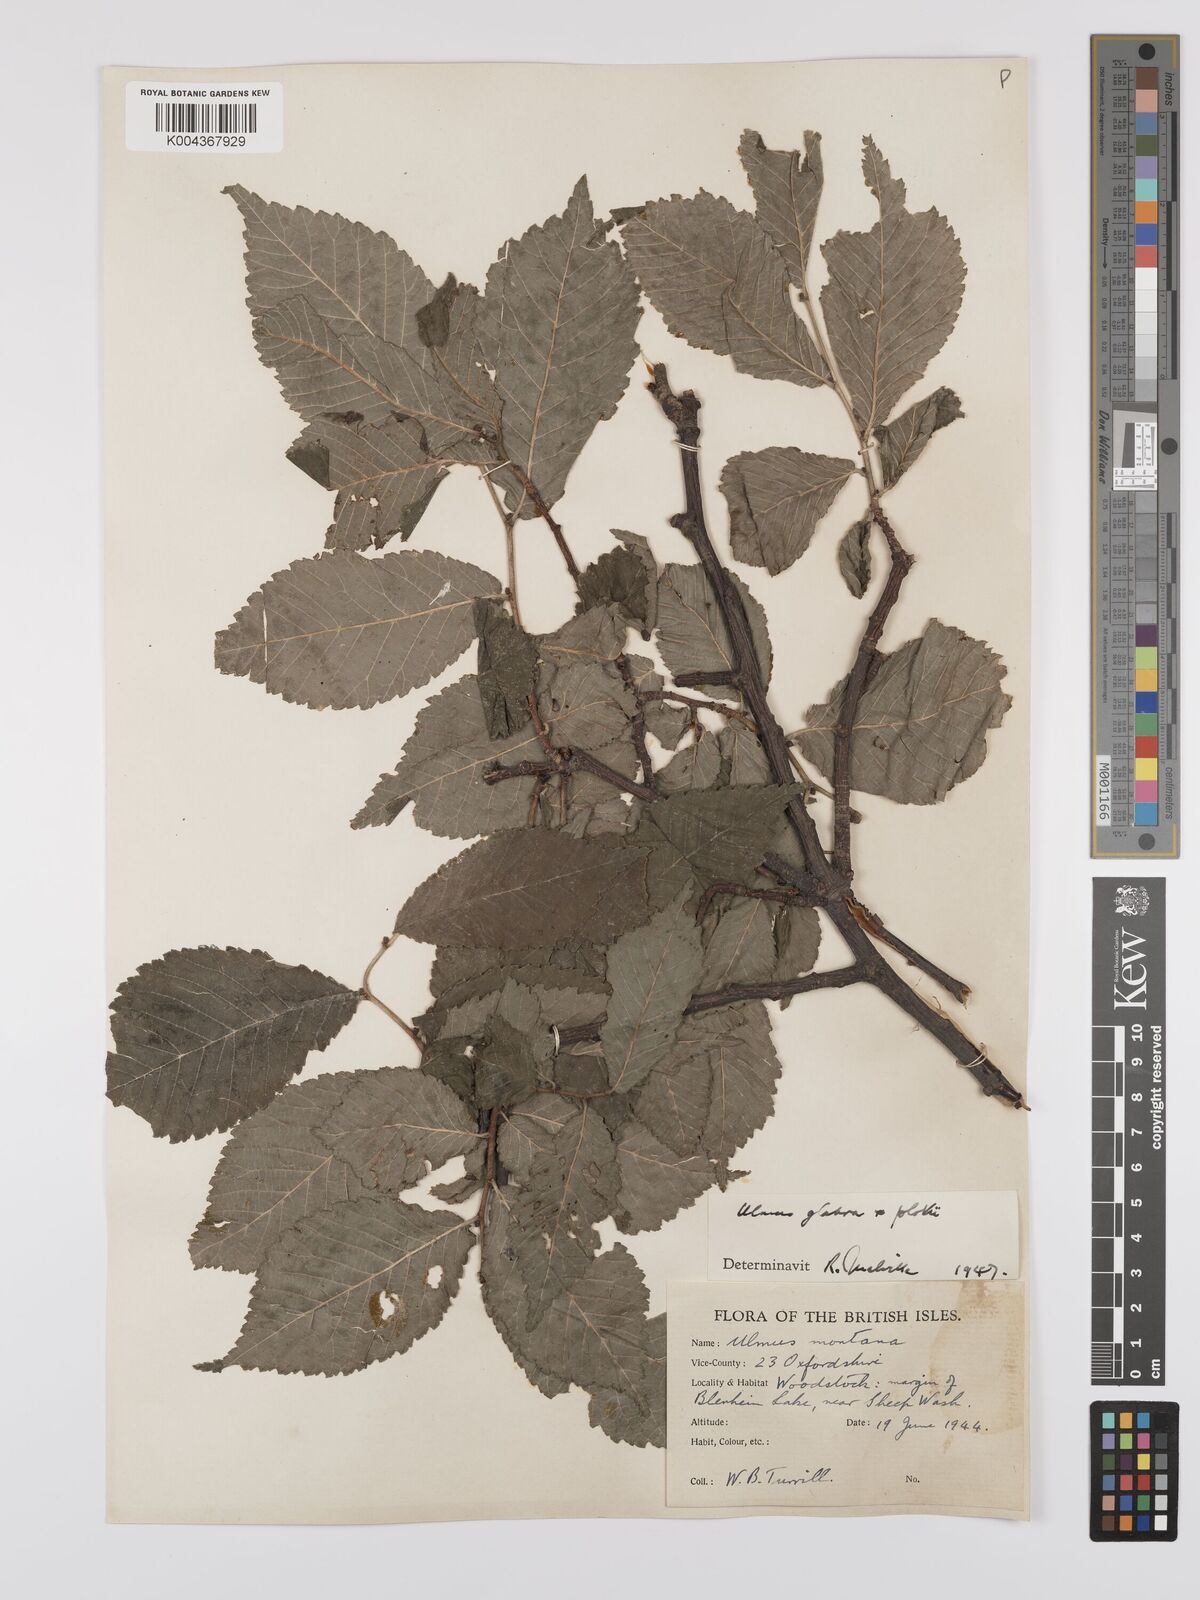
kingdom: Plantae
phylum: Tracheophyta
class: Magnoliopsida
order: Rosales
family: Ulmaceae
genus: Ulmus
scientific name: Ulmus
